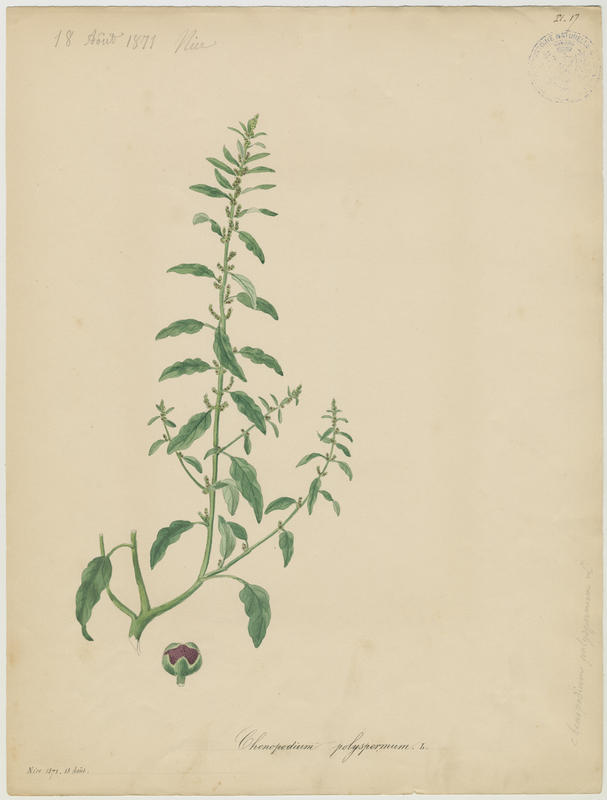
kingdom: Plantae
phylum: Tracheophyta
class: Magnoliopsida
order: Caryophyllales
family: Amaranthaceae
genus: Lipandra
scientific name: Lipandra polysperma
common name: Many-seed goosefoot
